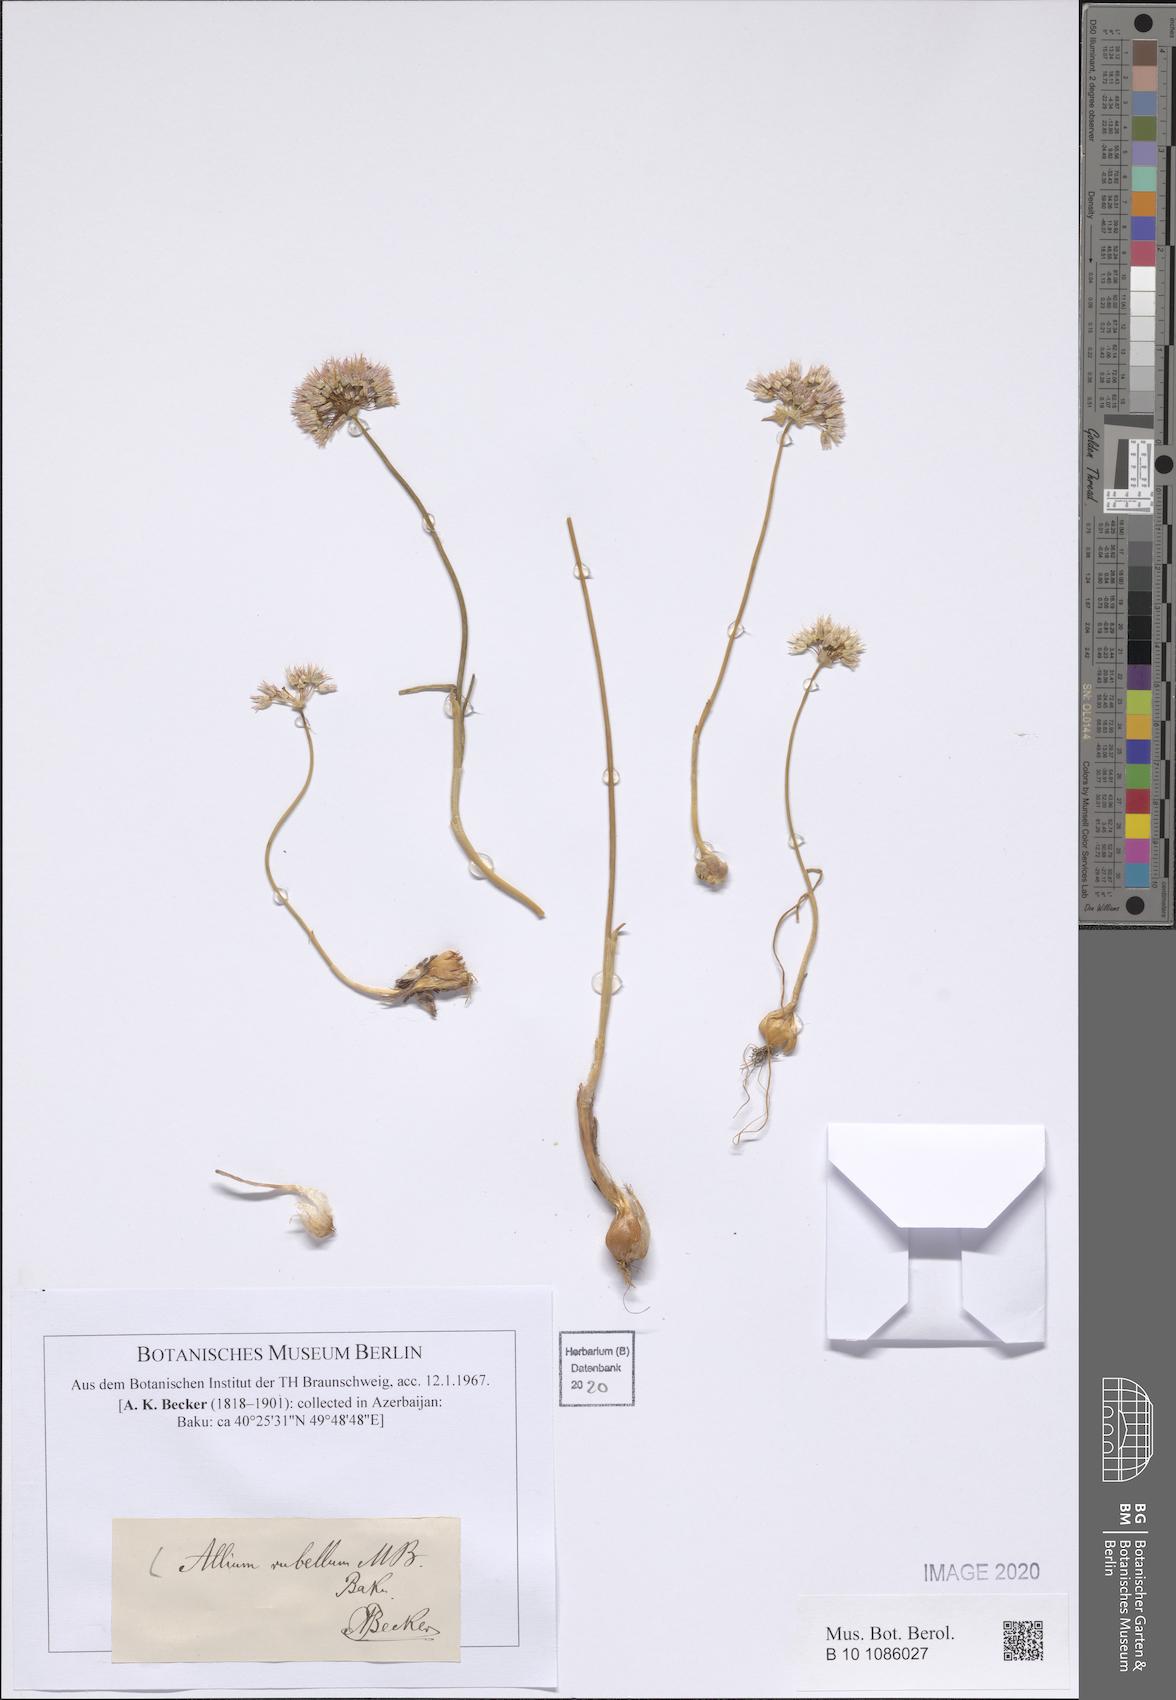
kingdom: Plantae
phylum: Tracheophyta
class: Liliopsida
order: Asparagales
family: Amaryllidaceae
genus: Allium
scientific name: Allium rubellum
